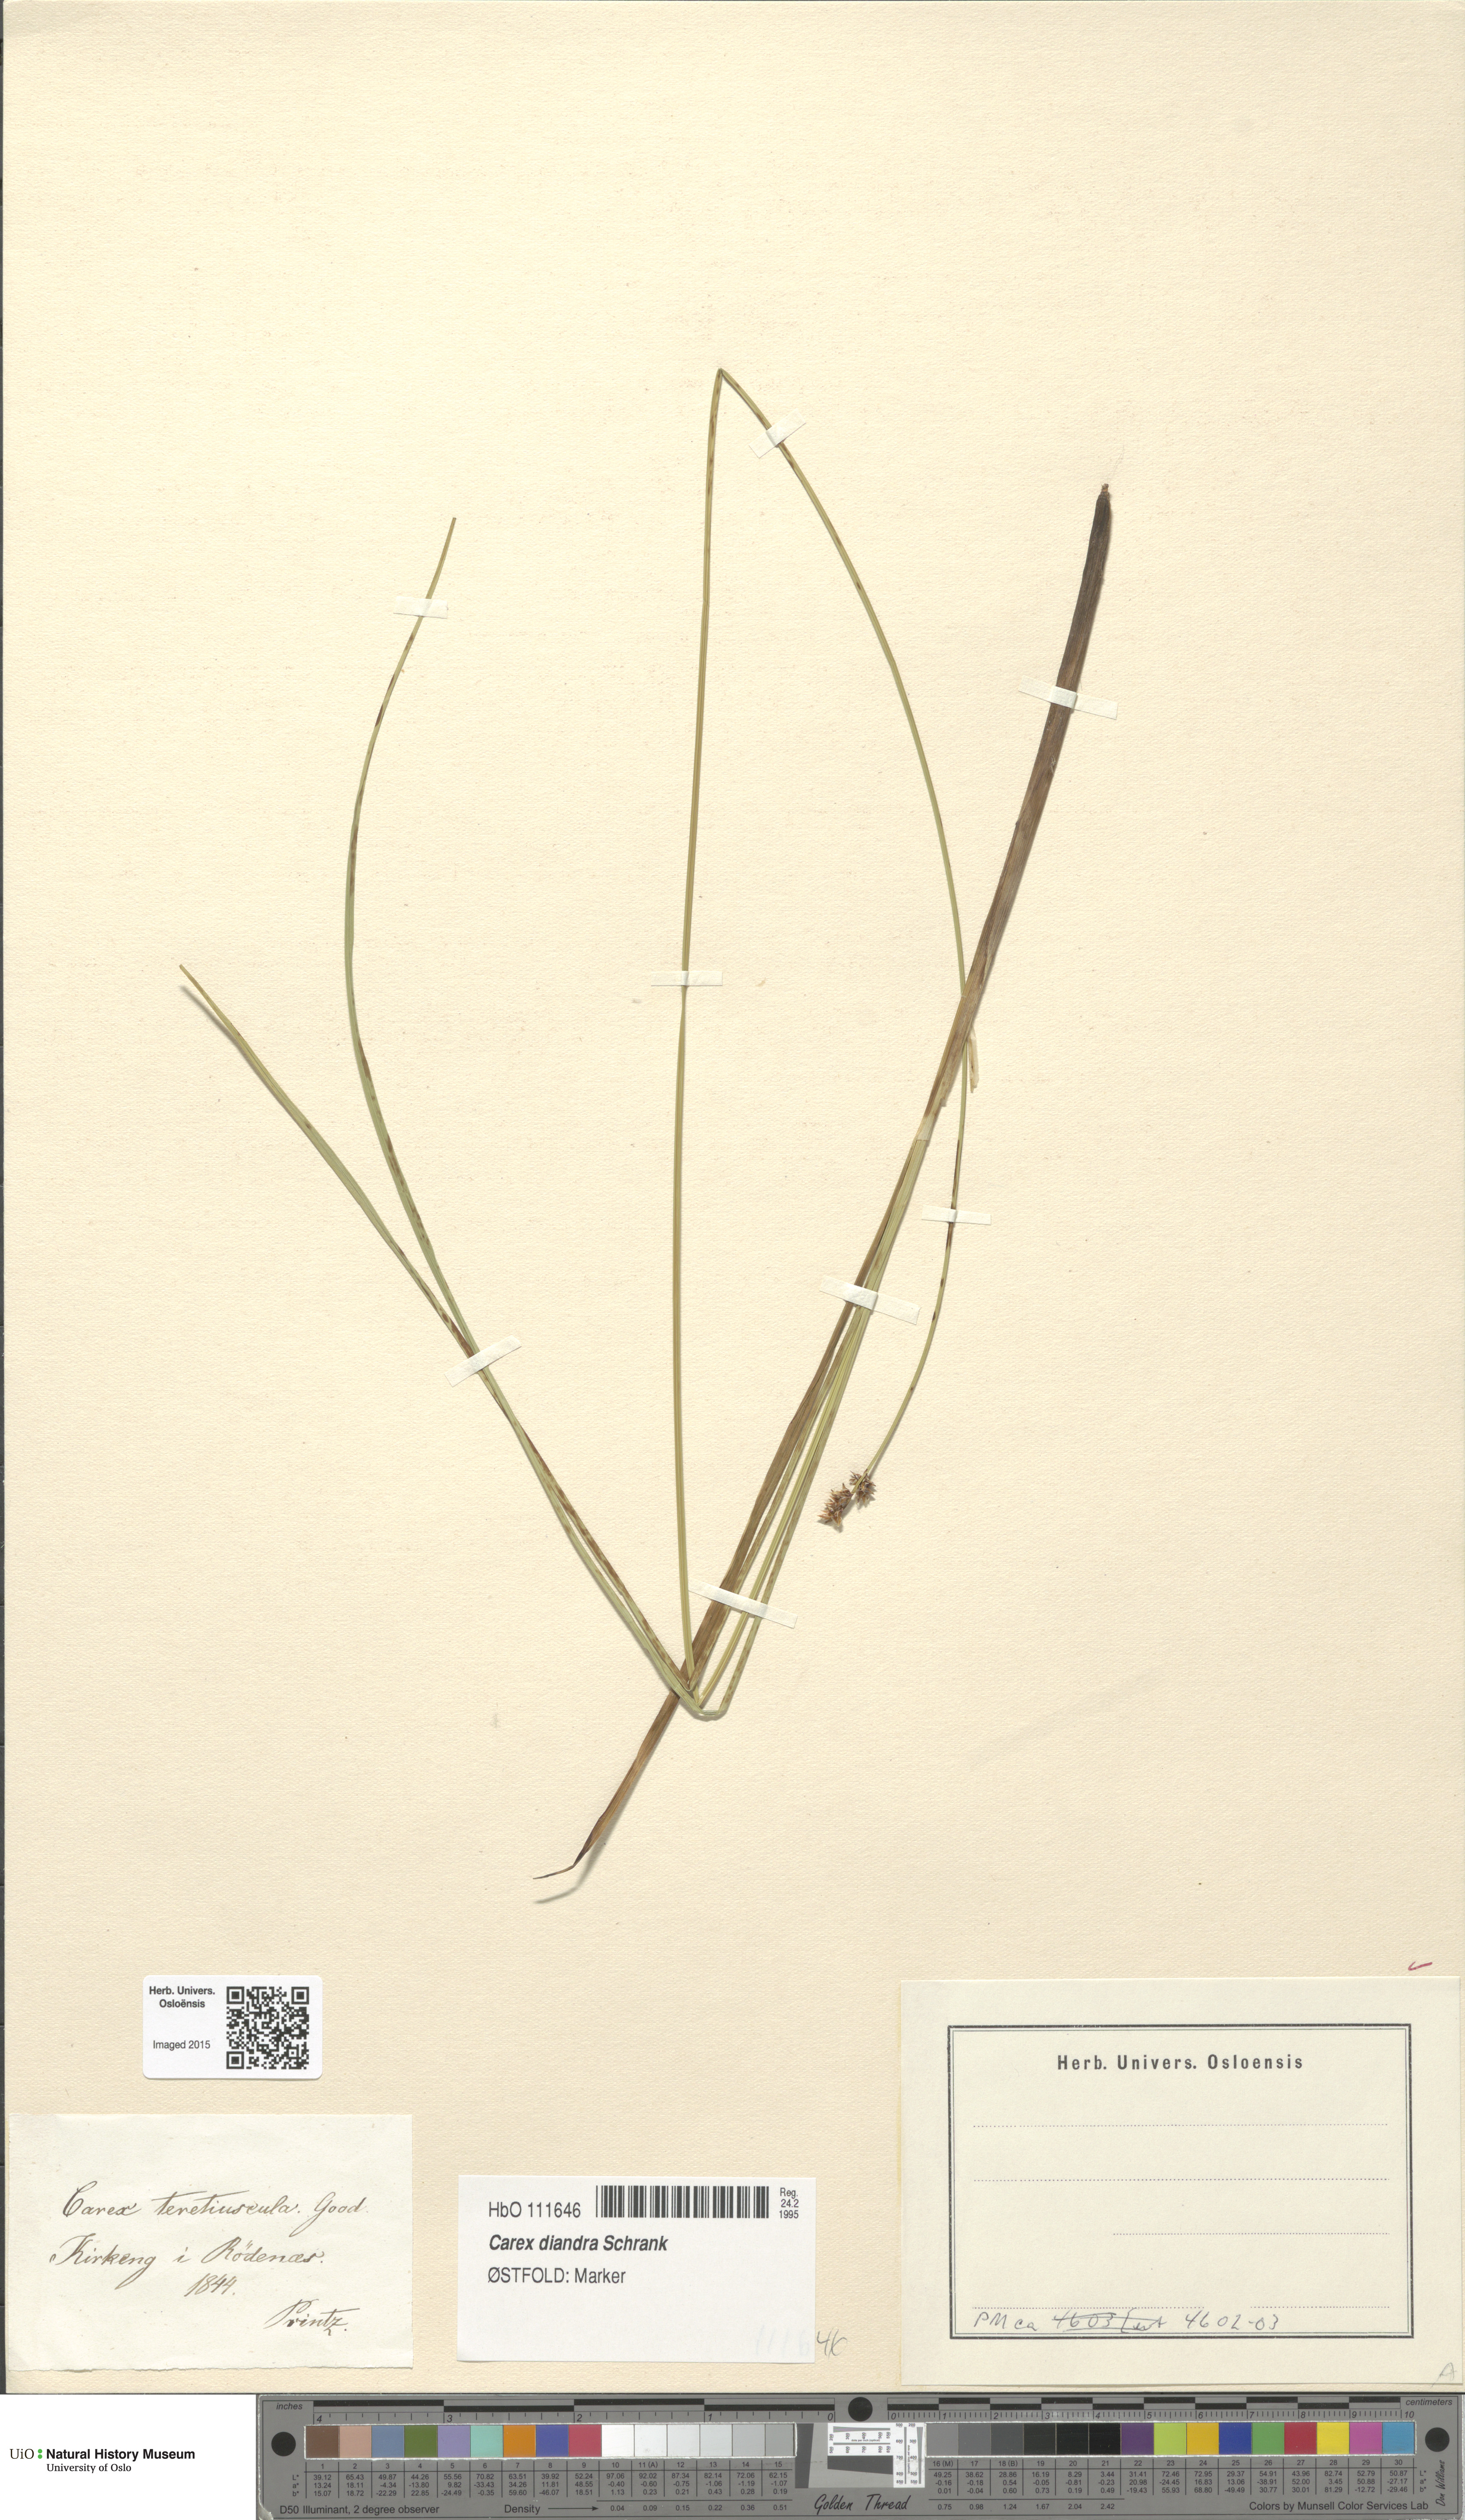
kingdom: Plantae
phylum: Tracheophyta
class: Liliopsida
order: Poales
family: Cyperaceae
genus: Carex
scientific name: Carex diandra
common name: Lesser tussock-sedge
